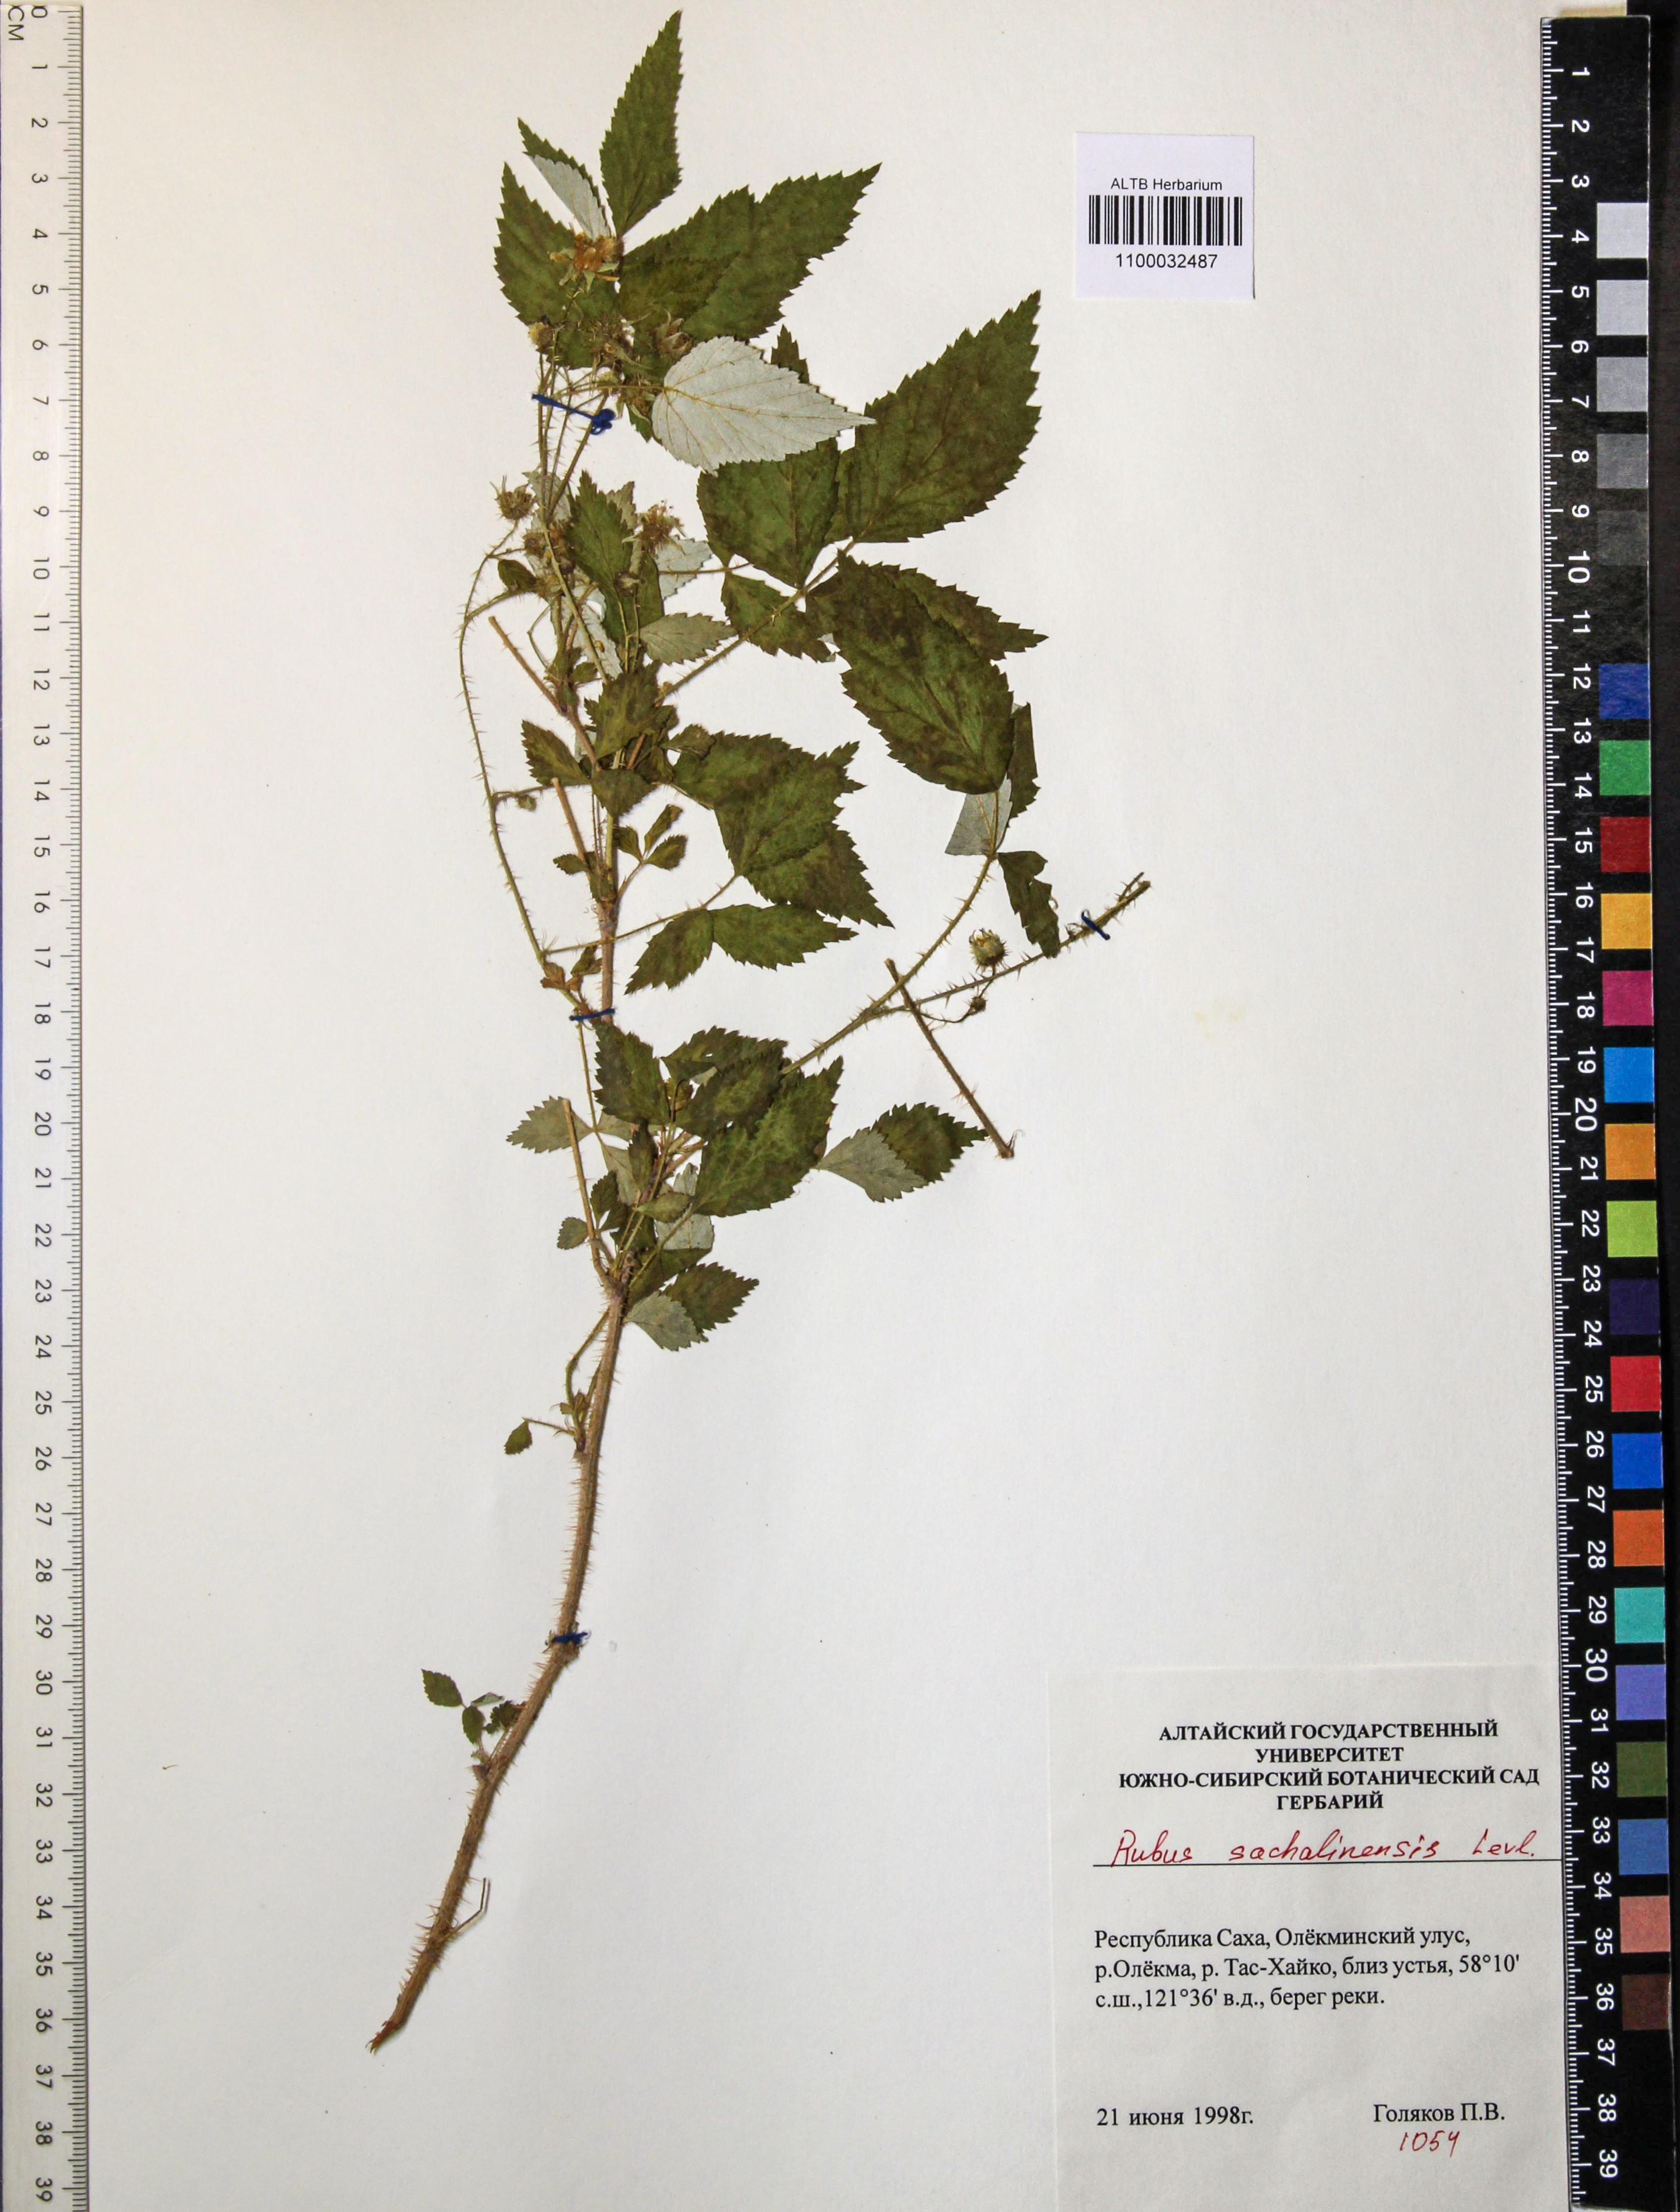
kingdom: Plantae
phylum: Tracheophyta
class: Magnoliopsida
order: Rosales
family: Rosaceae
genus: Rubus
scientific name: Rubus sachalinensis
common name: Red raspberry
